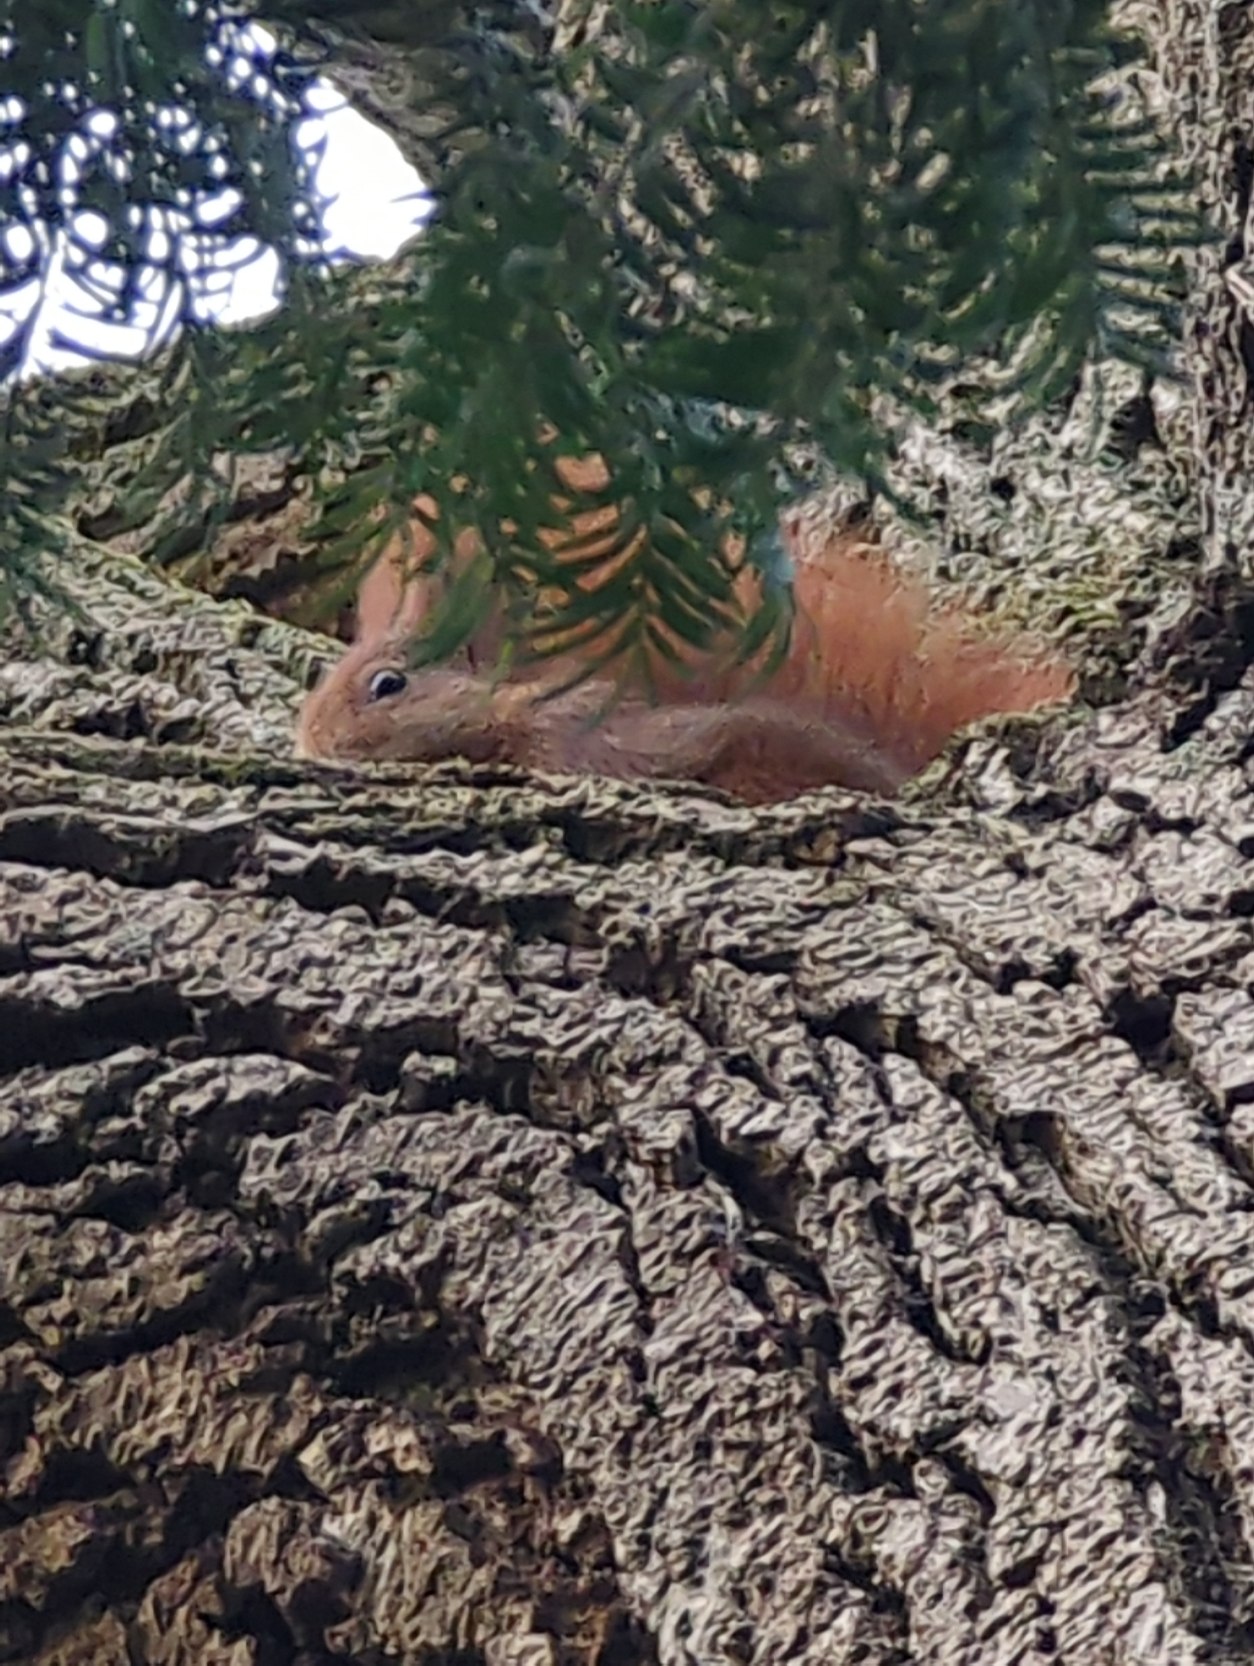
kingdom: Animalia
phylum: Chordata
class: Mammalia
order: Rodentia
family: Sciuridae
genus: Sciurus
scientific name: Sciurus vulgaris
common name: Egern
